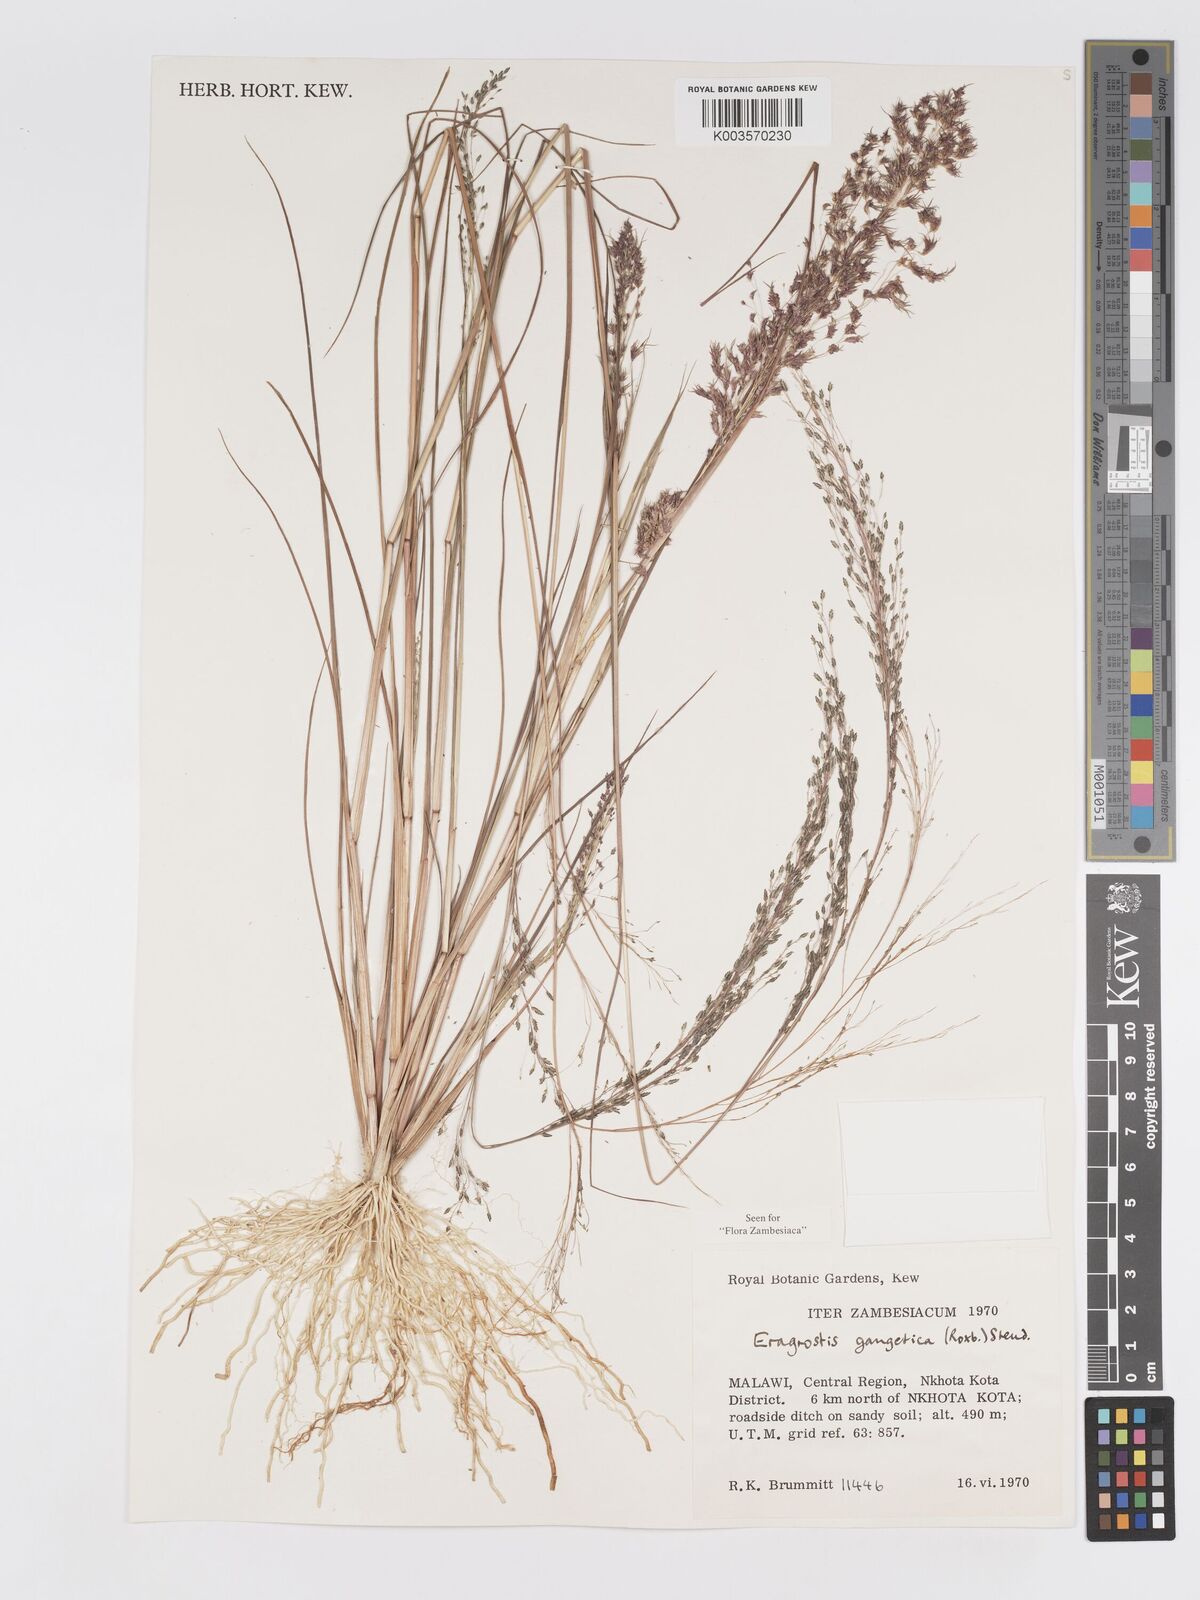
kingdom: Plantae
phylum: Tracheophyta
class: Liliopsida
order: Poales
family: Poaceae
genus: Eragrostis
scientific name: Eragrostis gangetica
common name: Slimflower lovegrass
